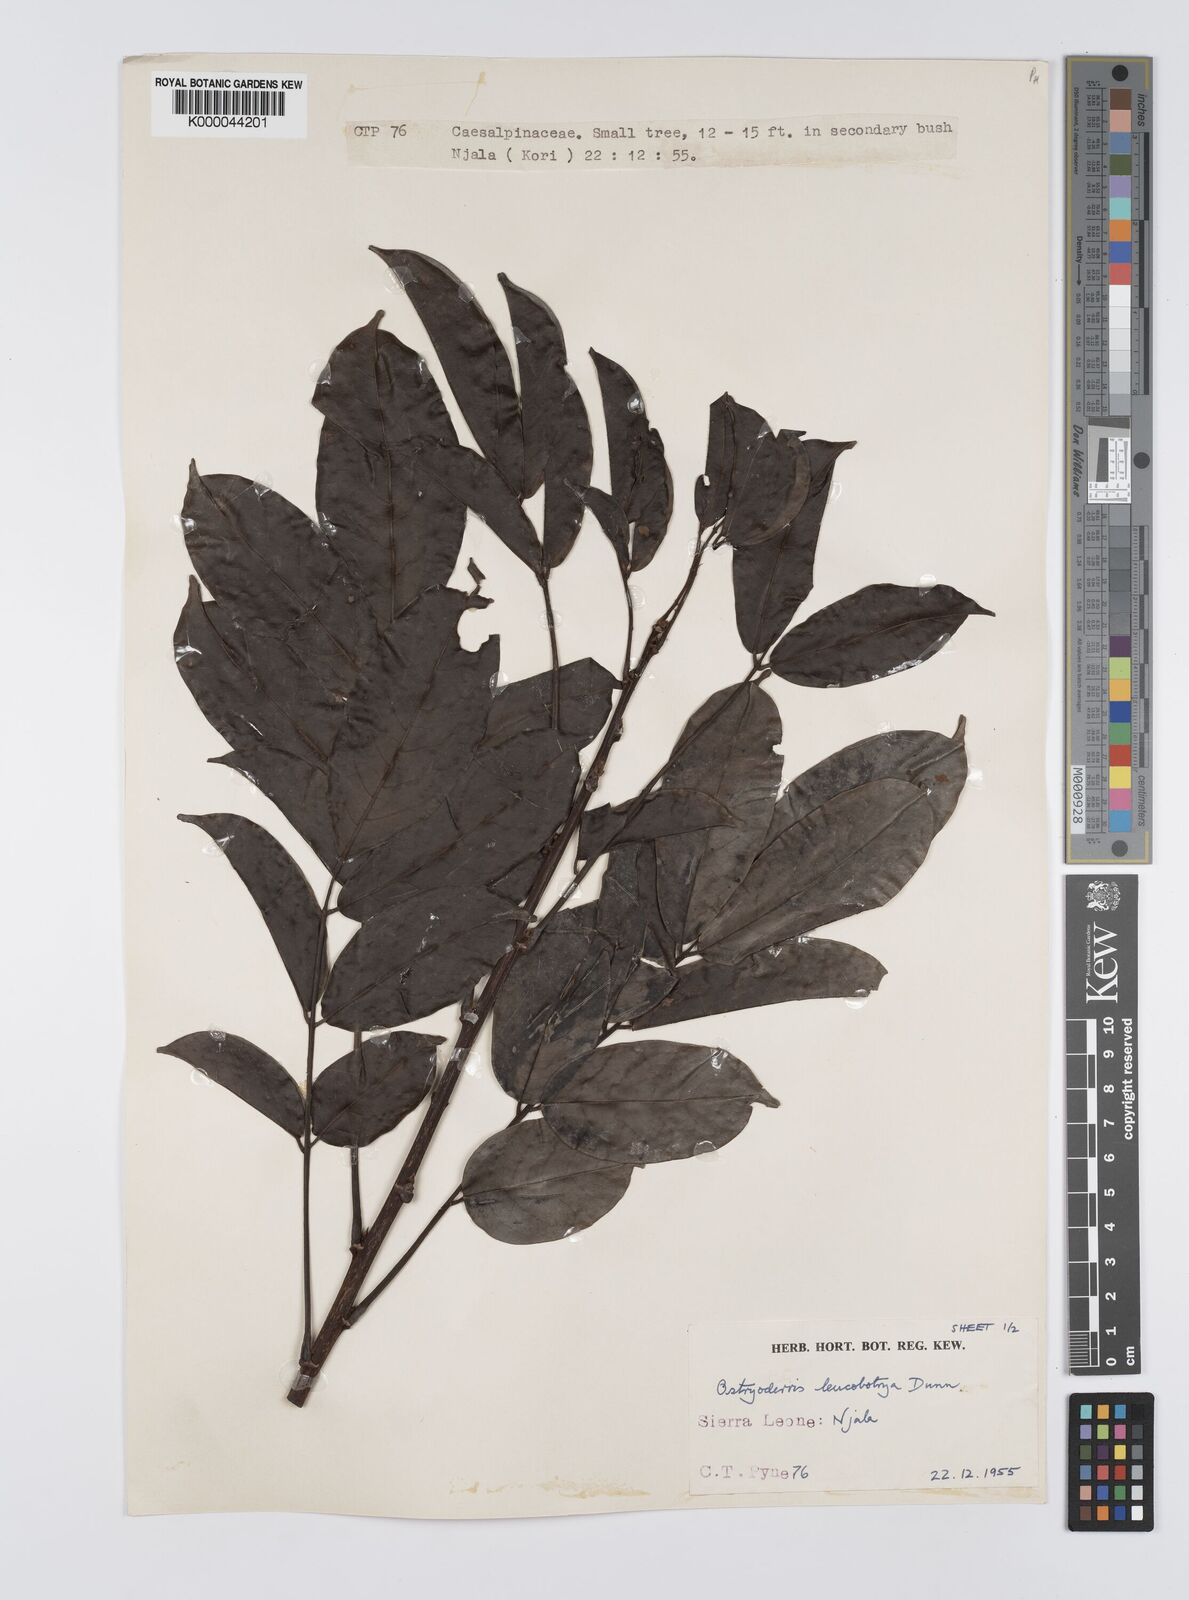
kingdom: Plantae
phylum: Tracheophyta
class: Magnoliopsida
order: Fabales
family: Fabaceae
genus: Aganope
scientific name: Aganope leucobotrya
